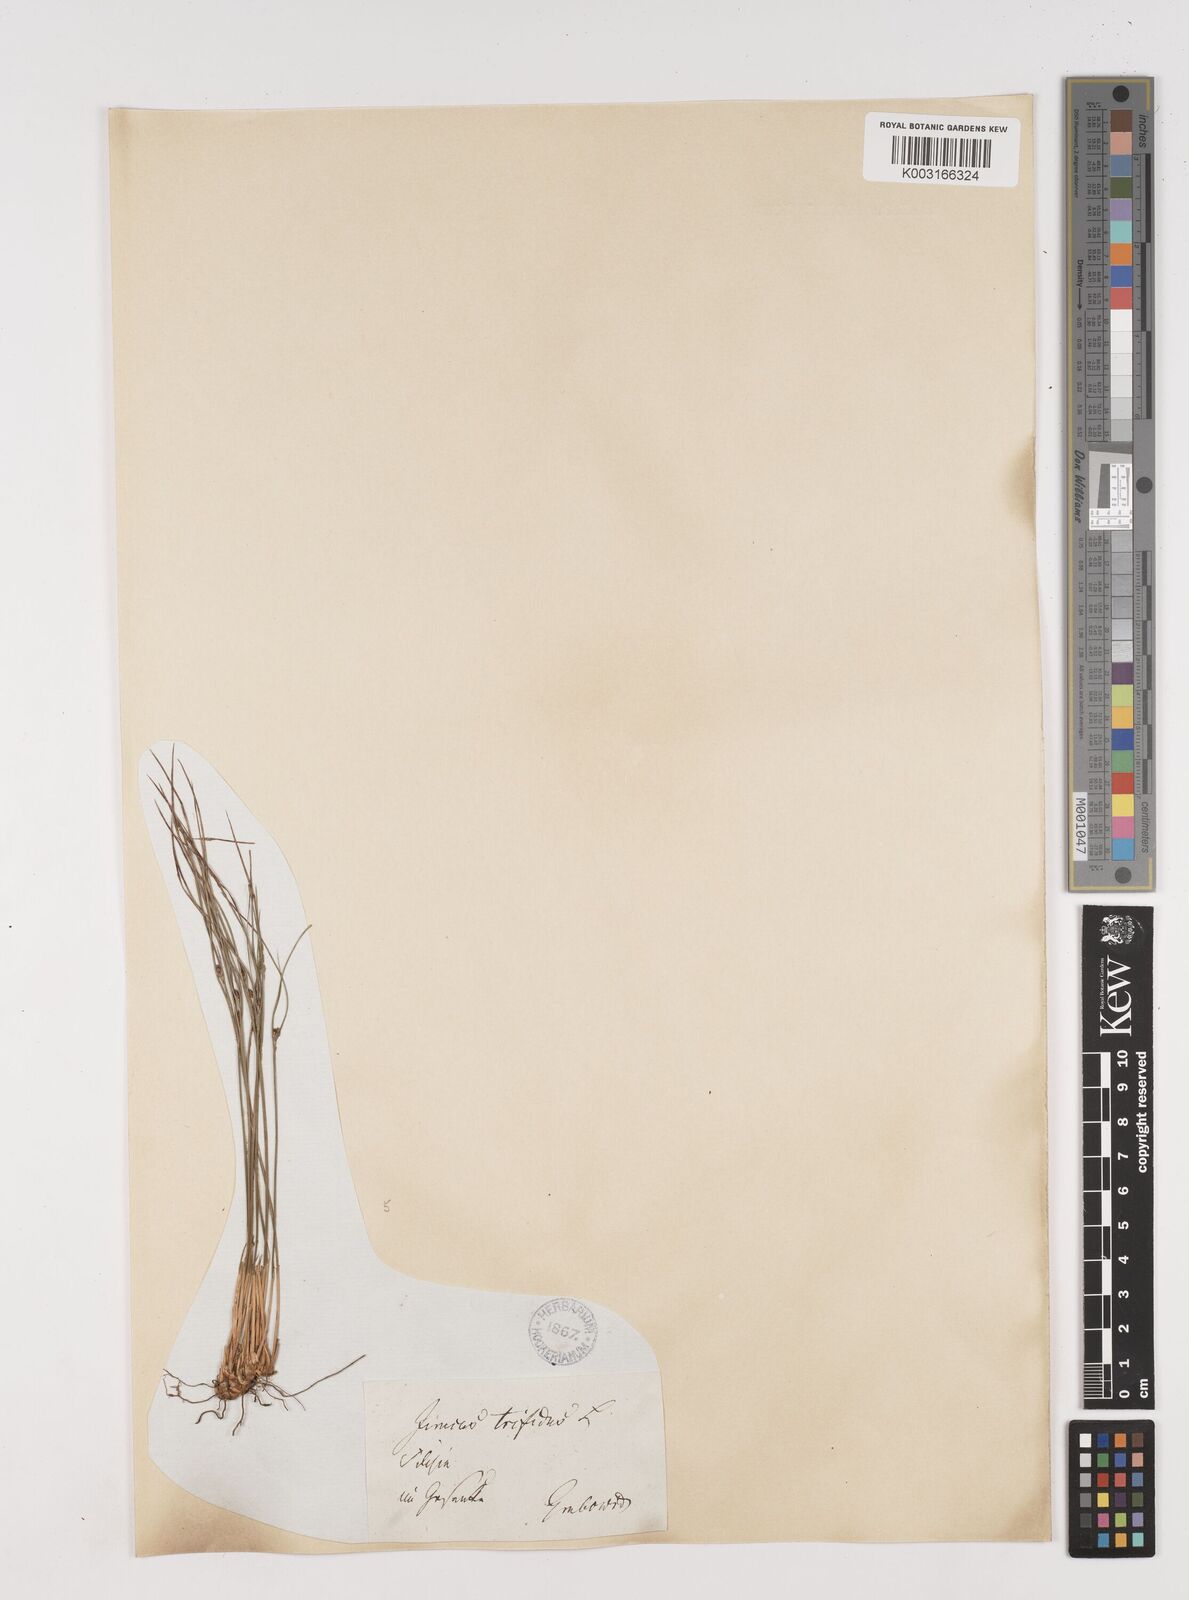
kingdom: Plantae
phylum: Tracheophyta
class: Liliopsida
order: Poales
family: Juncaceae
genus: Oreojuncus
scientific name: Oreojuncus trifidus
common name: Highland rush
